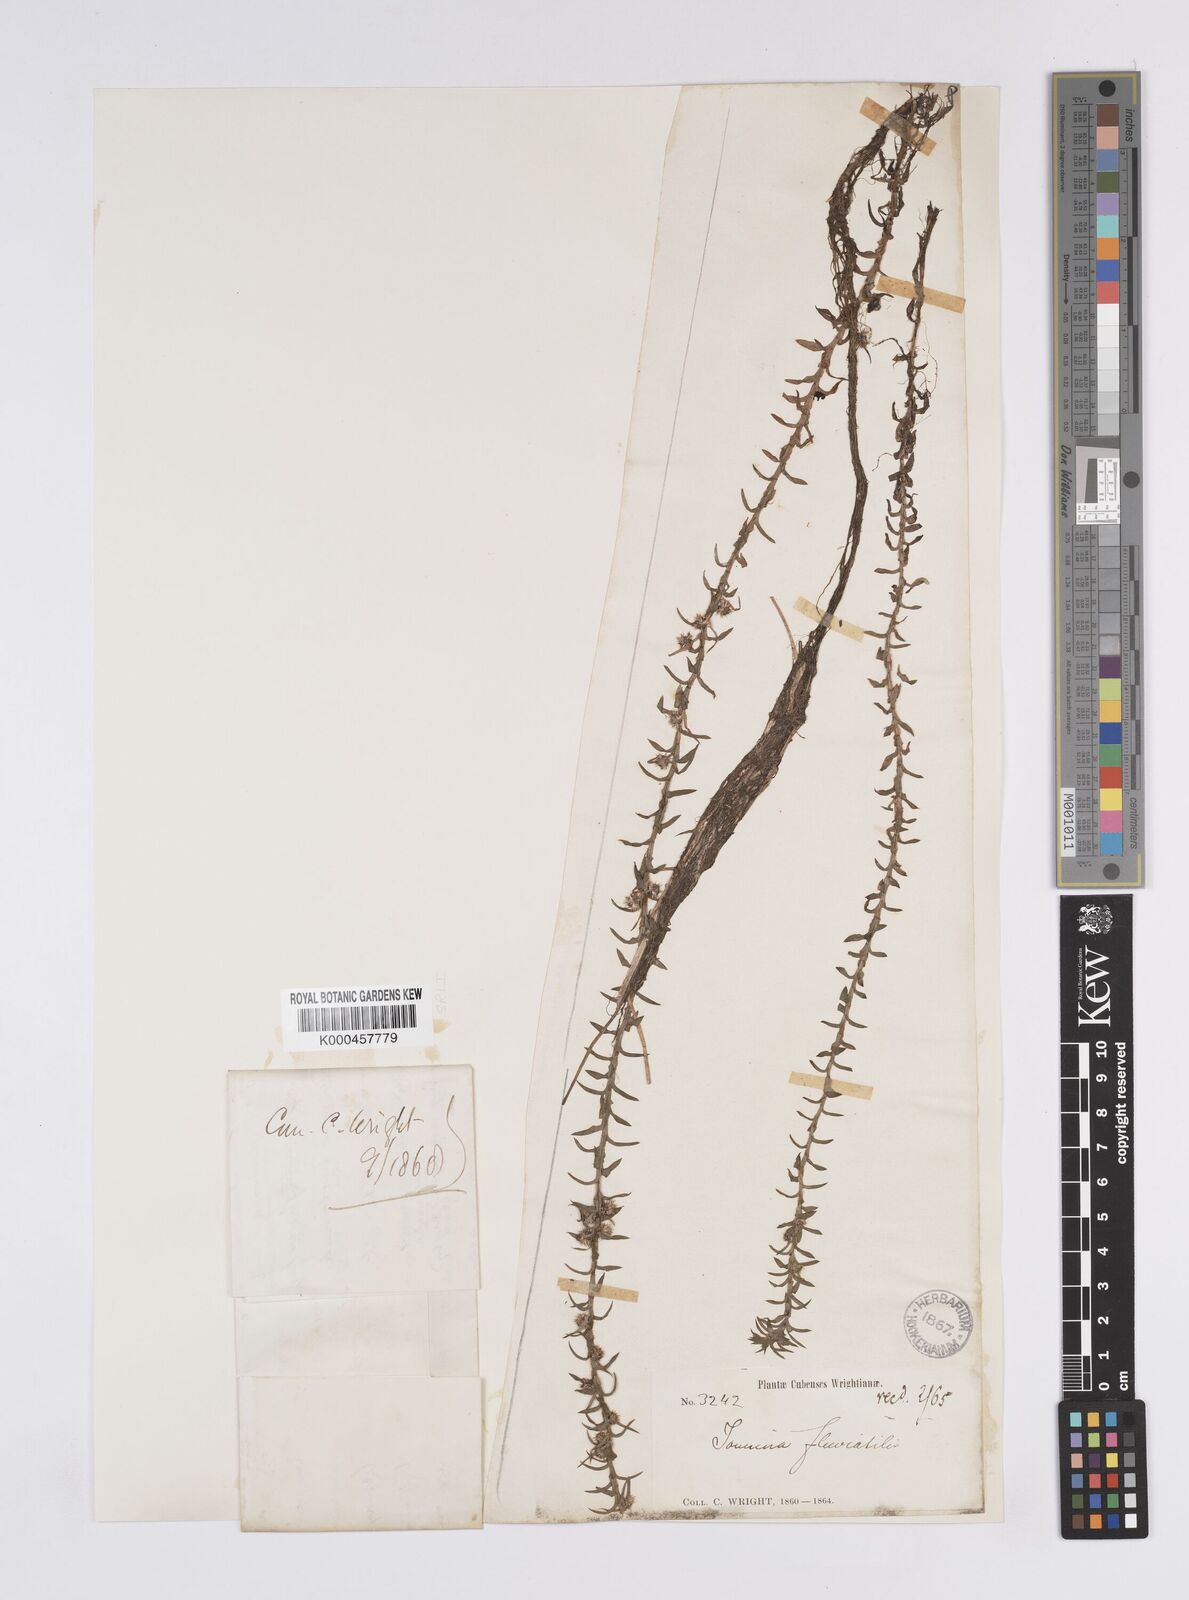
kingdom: Plantae
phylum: Tracheophyta
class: Liliopsida
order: Poales
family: Eriocaulaceae
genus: Paepalanthus
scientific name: Paepalanthus fluviatilis
